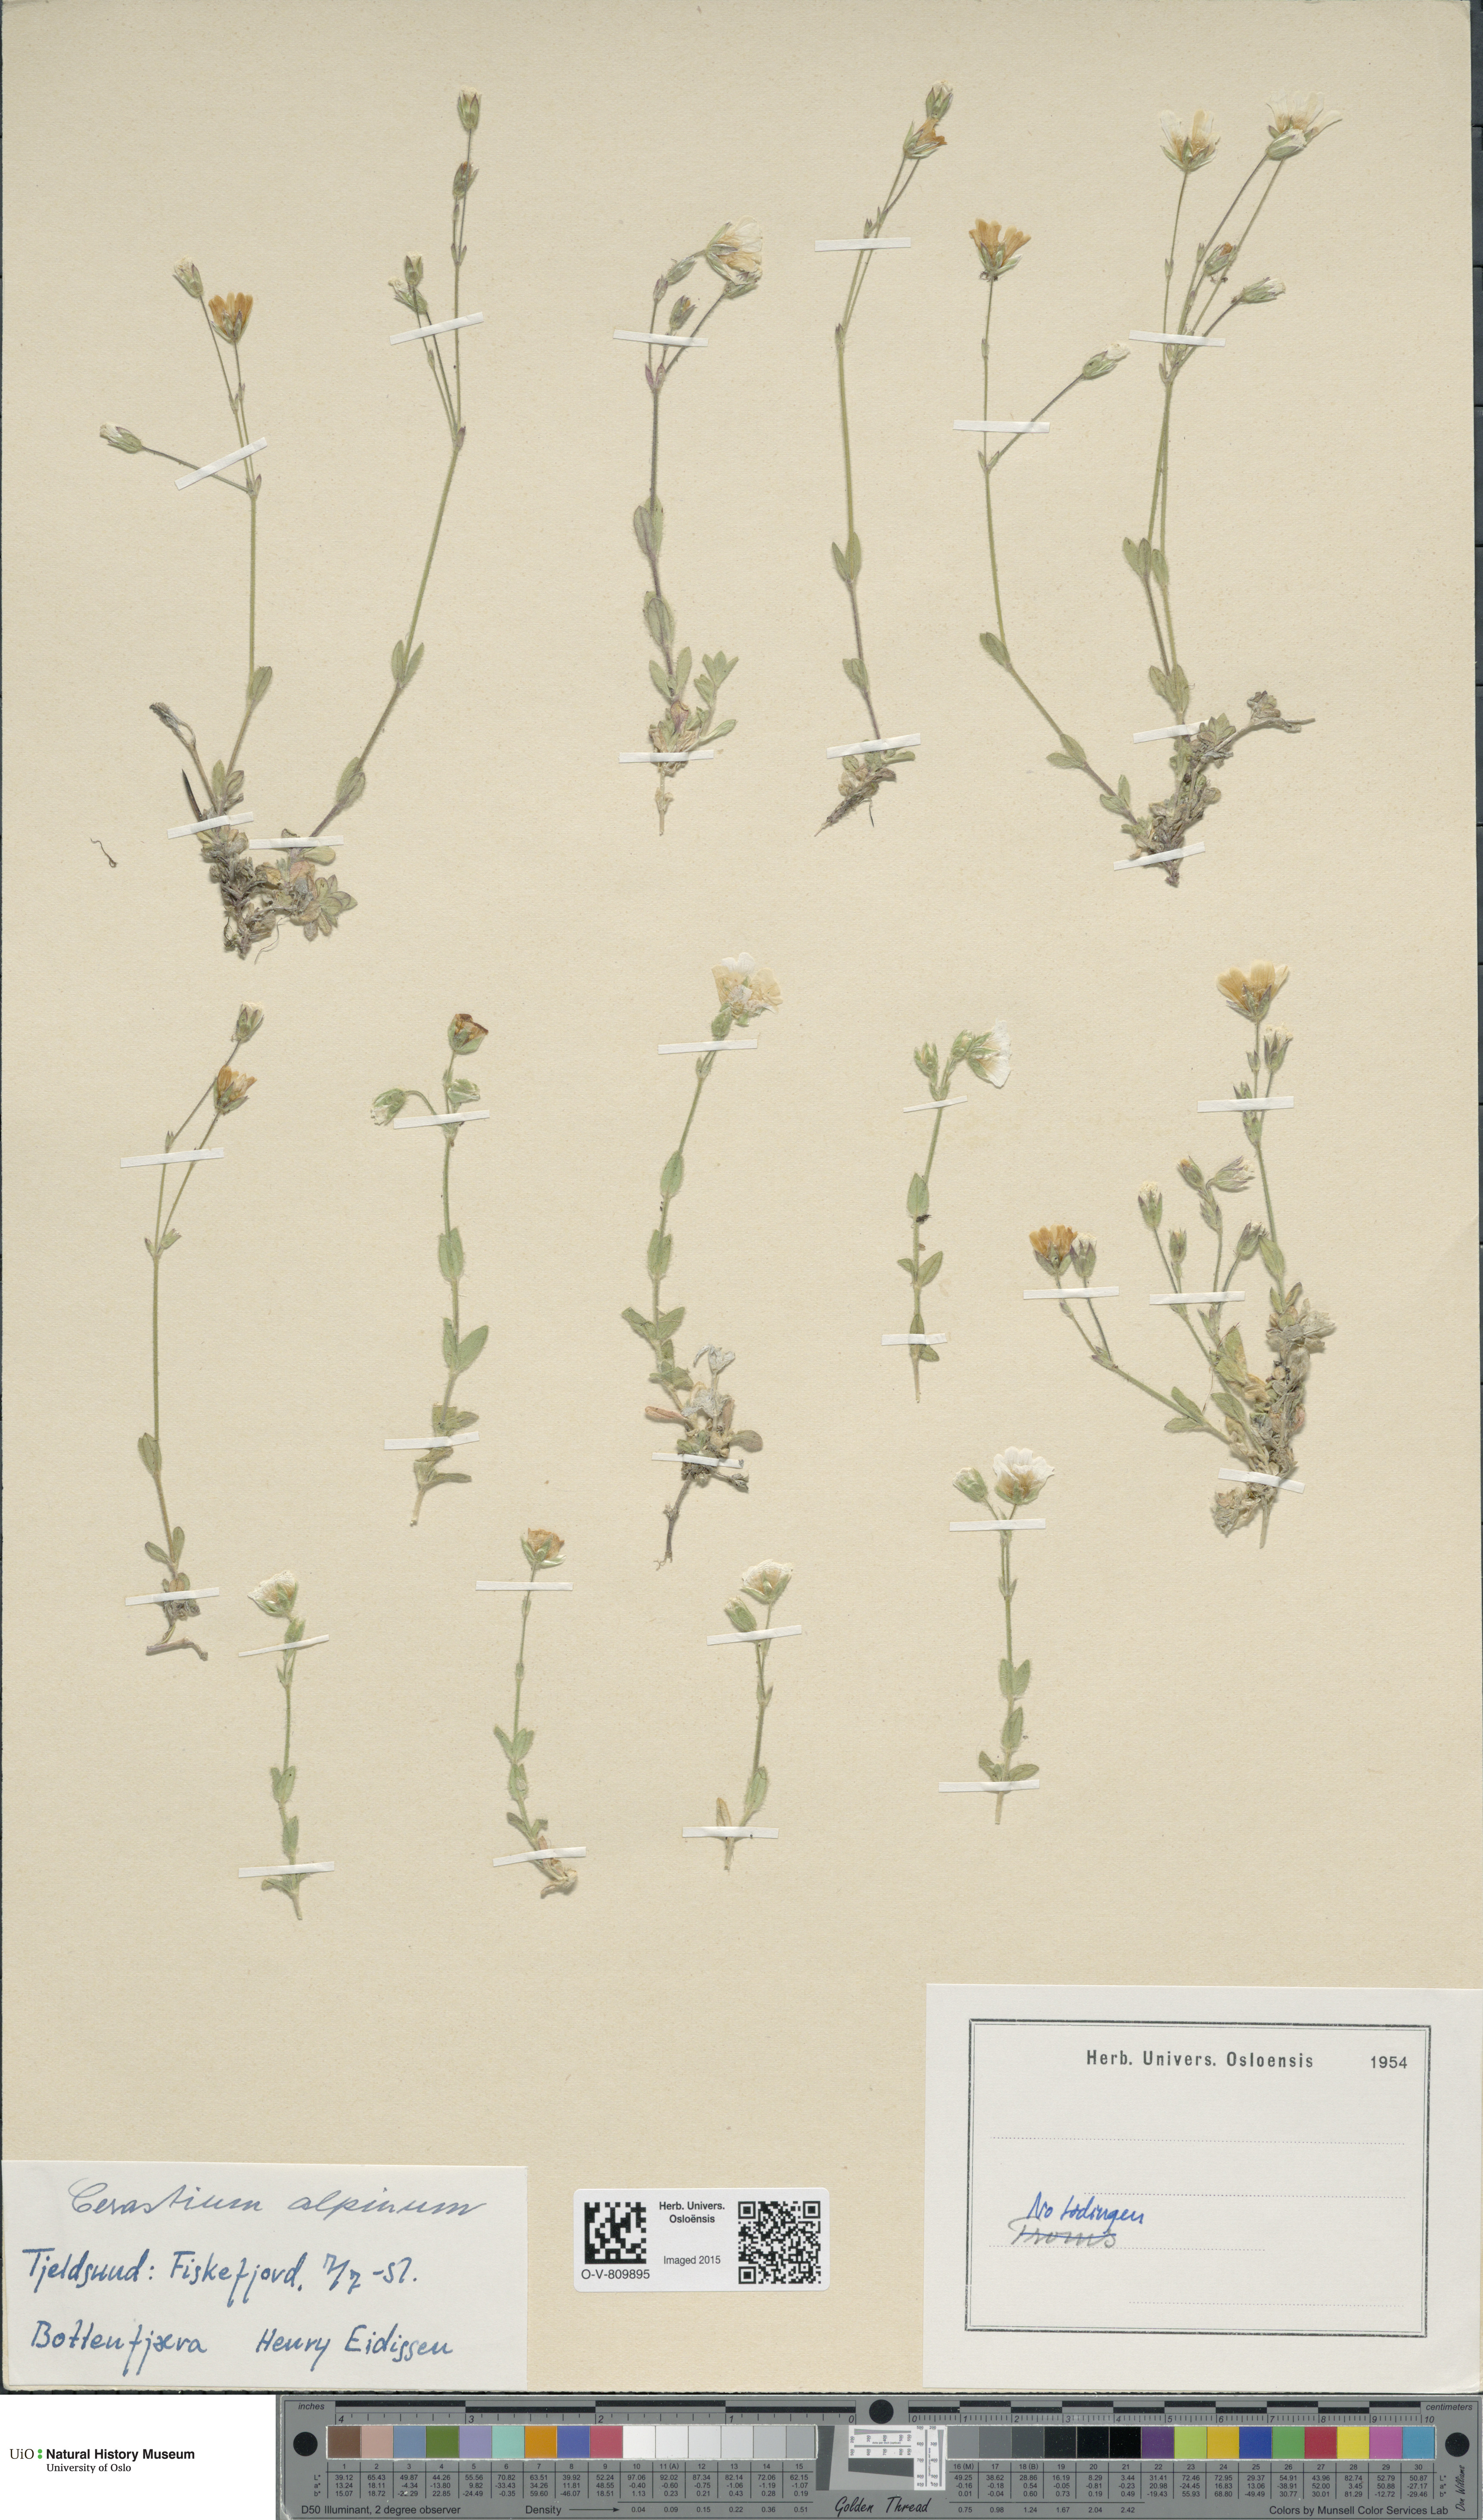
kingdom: Plantae
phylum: Tracheophyta
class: Magnoliopsida
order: Caryophyllales
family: Caryophyllaceae
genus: Cerastium
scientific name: Cerastium alpinum
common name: Alpine mouse-ear
